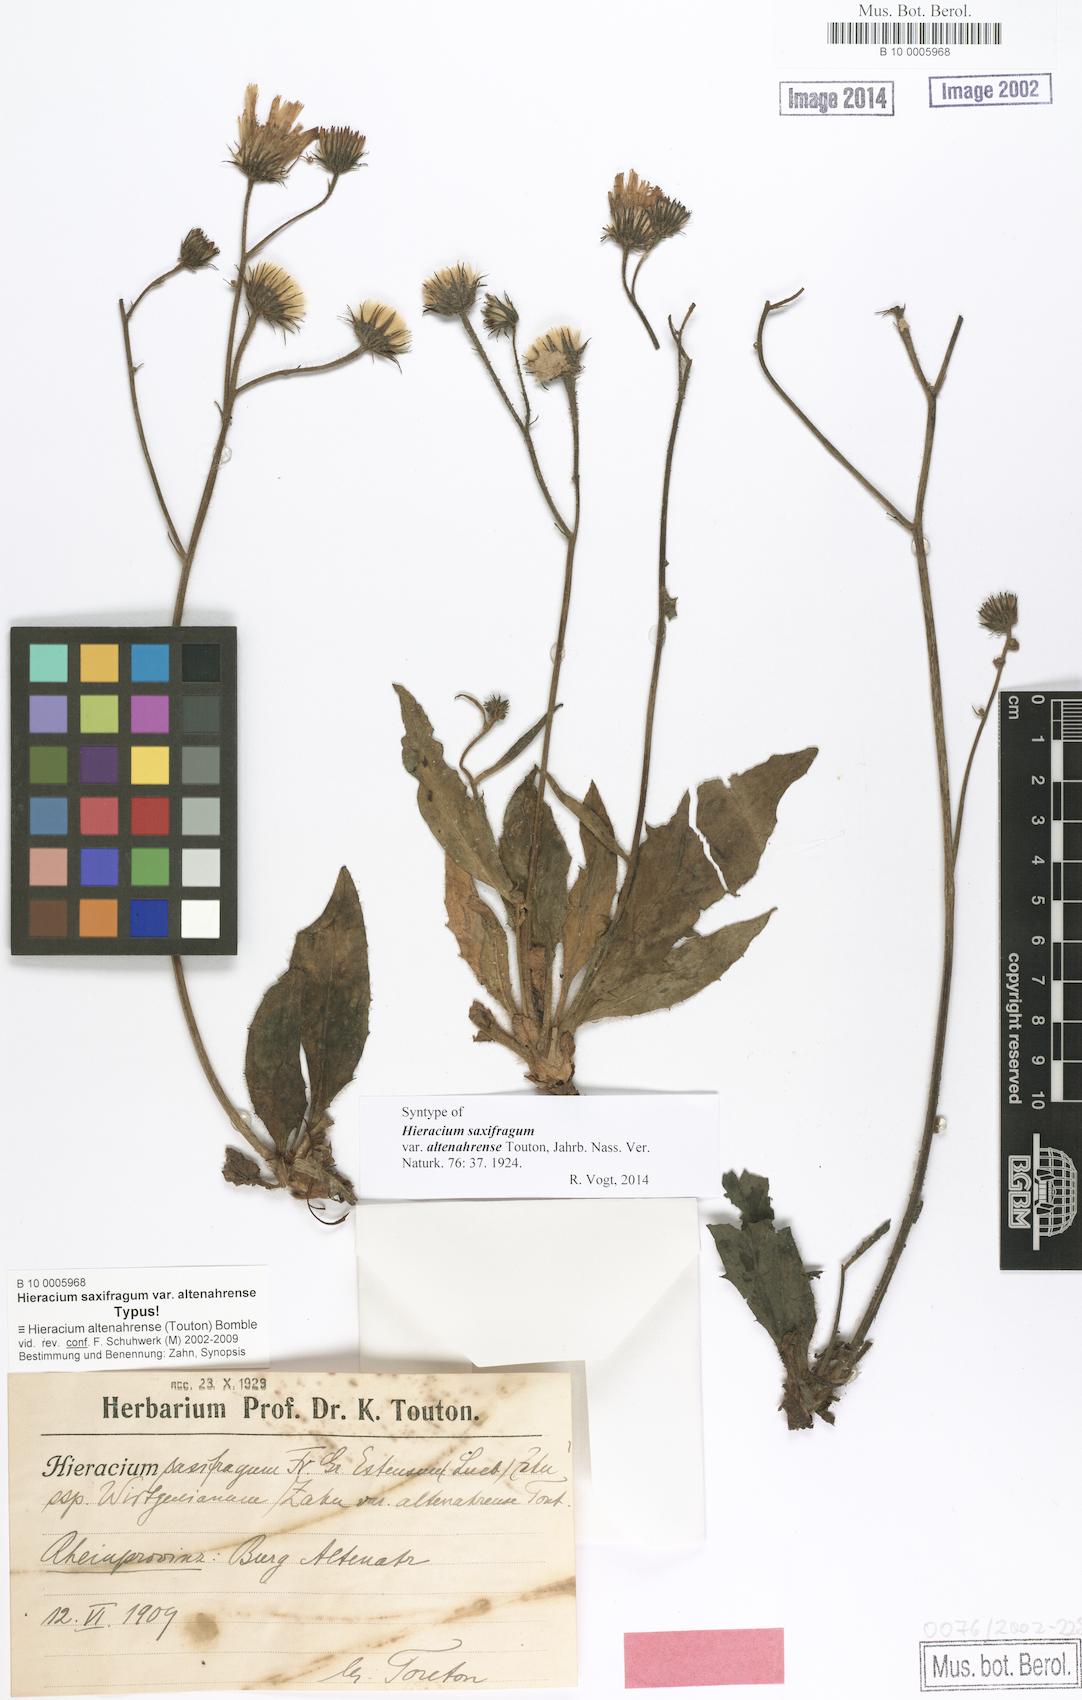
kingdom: Plantae
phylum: Tracheophyta
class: Magnoliopsida
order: Asterales
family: Asteraceae
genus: Hieracium
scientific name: Hieracium saxifragum
